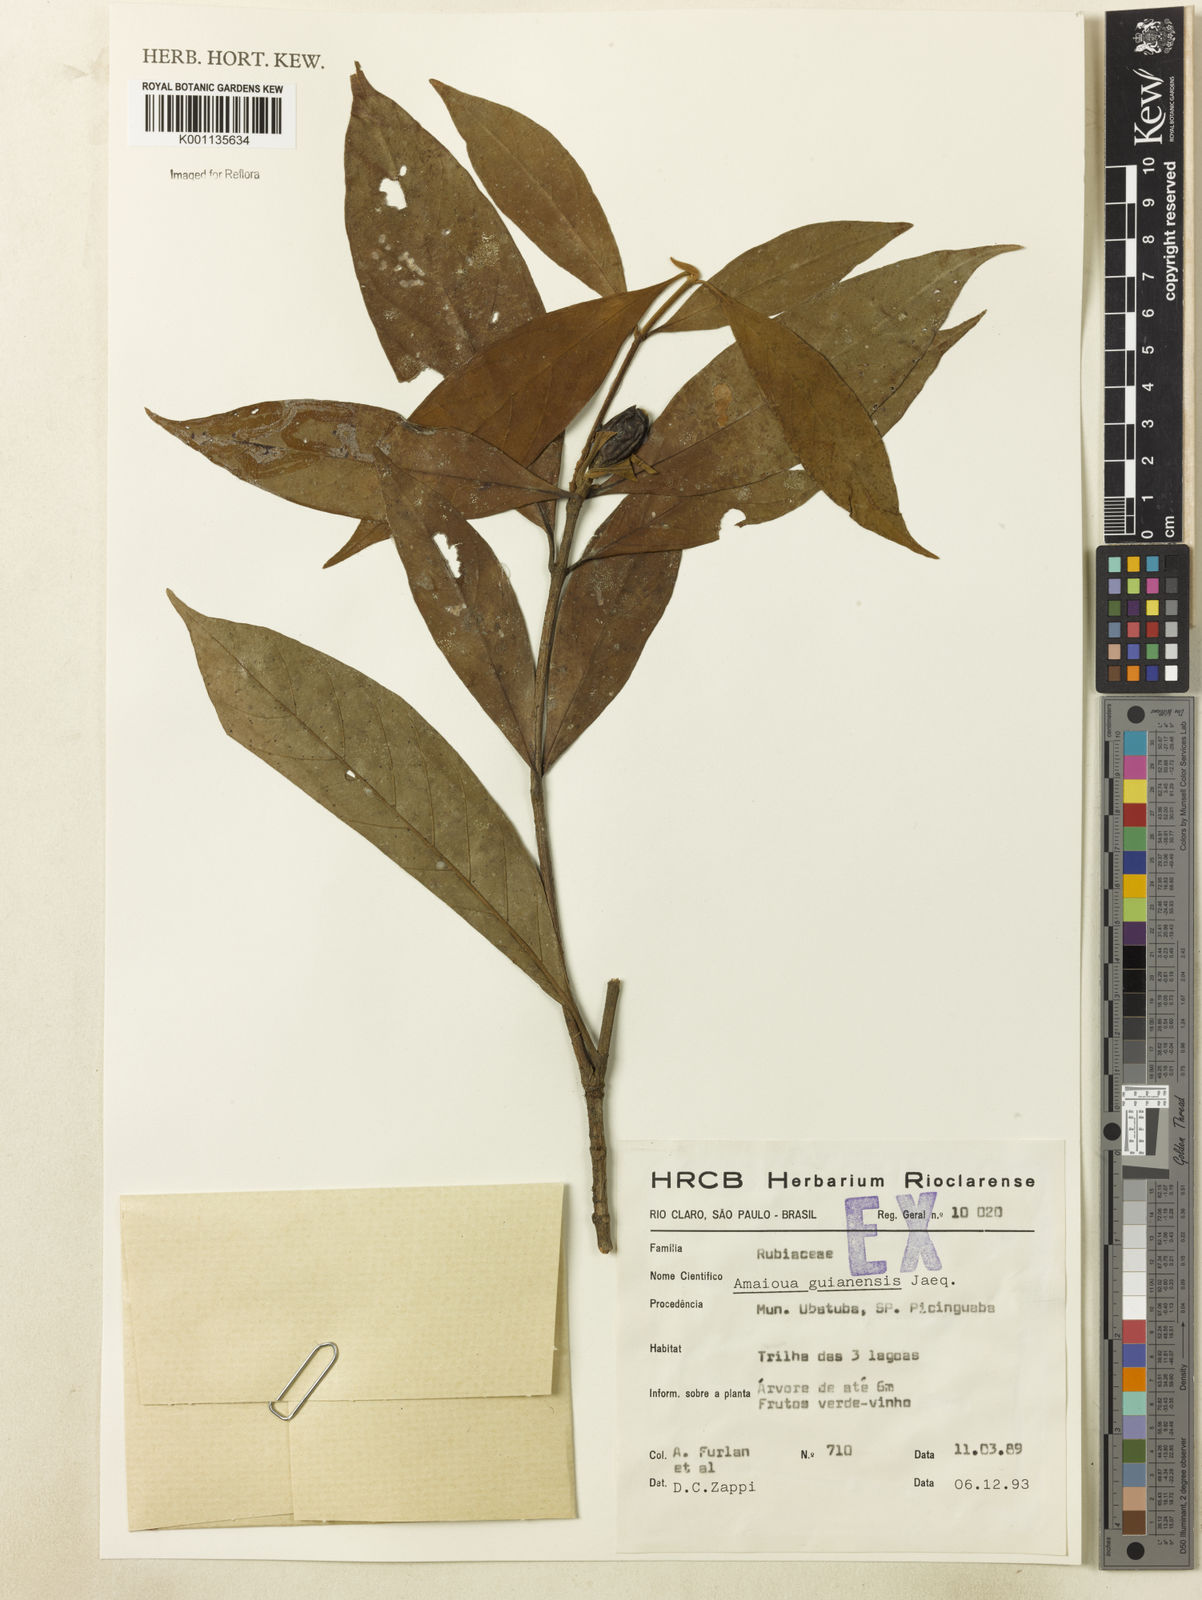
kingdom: Plantae
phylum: Tracheophyta
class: Magnoliopsida
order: Gentianales
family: Rubiaceae
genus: Amaioua
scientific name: Amaioua intermedia
